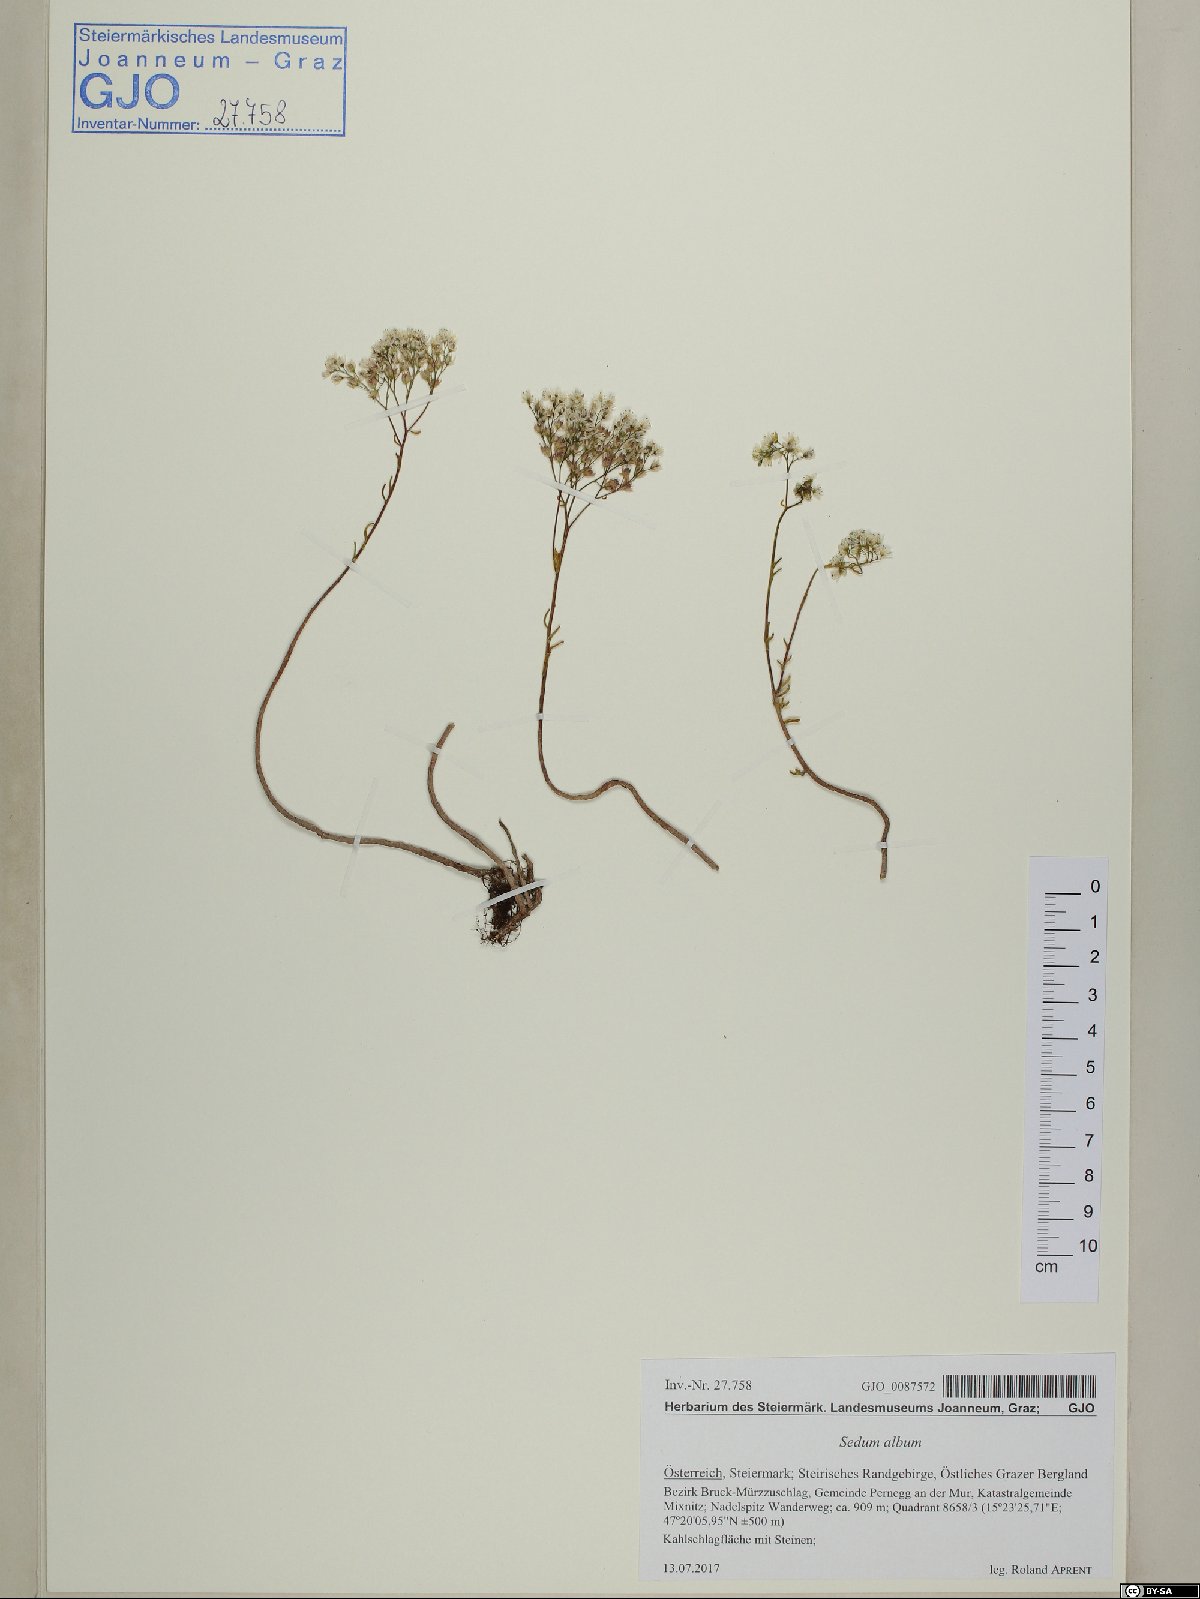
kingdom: Plantae
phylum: Tracheophyta
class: Magnoliopsida
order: Saxifragales
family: Crassulaceae
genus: Sedum
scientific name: Sedum album
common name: White stonecrop
